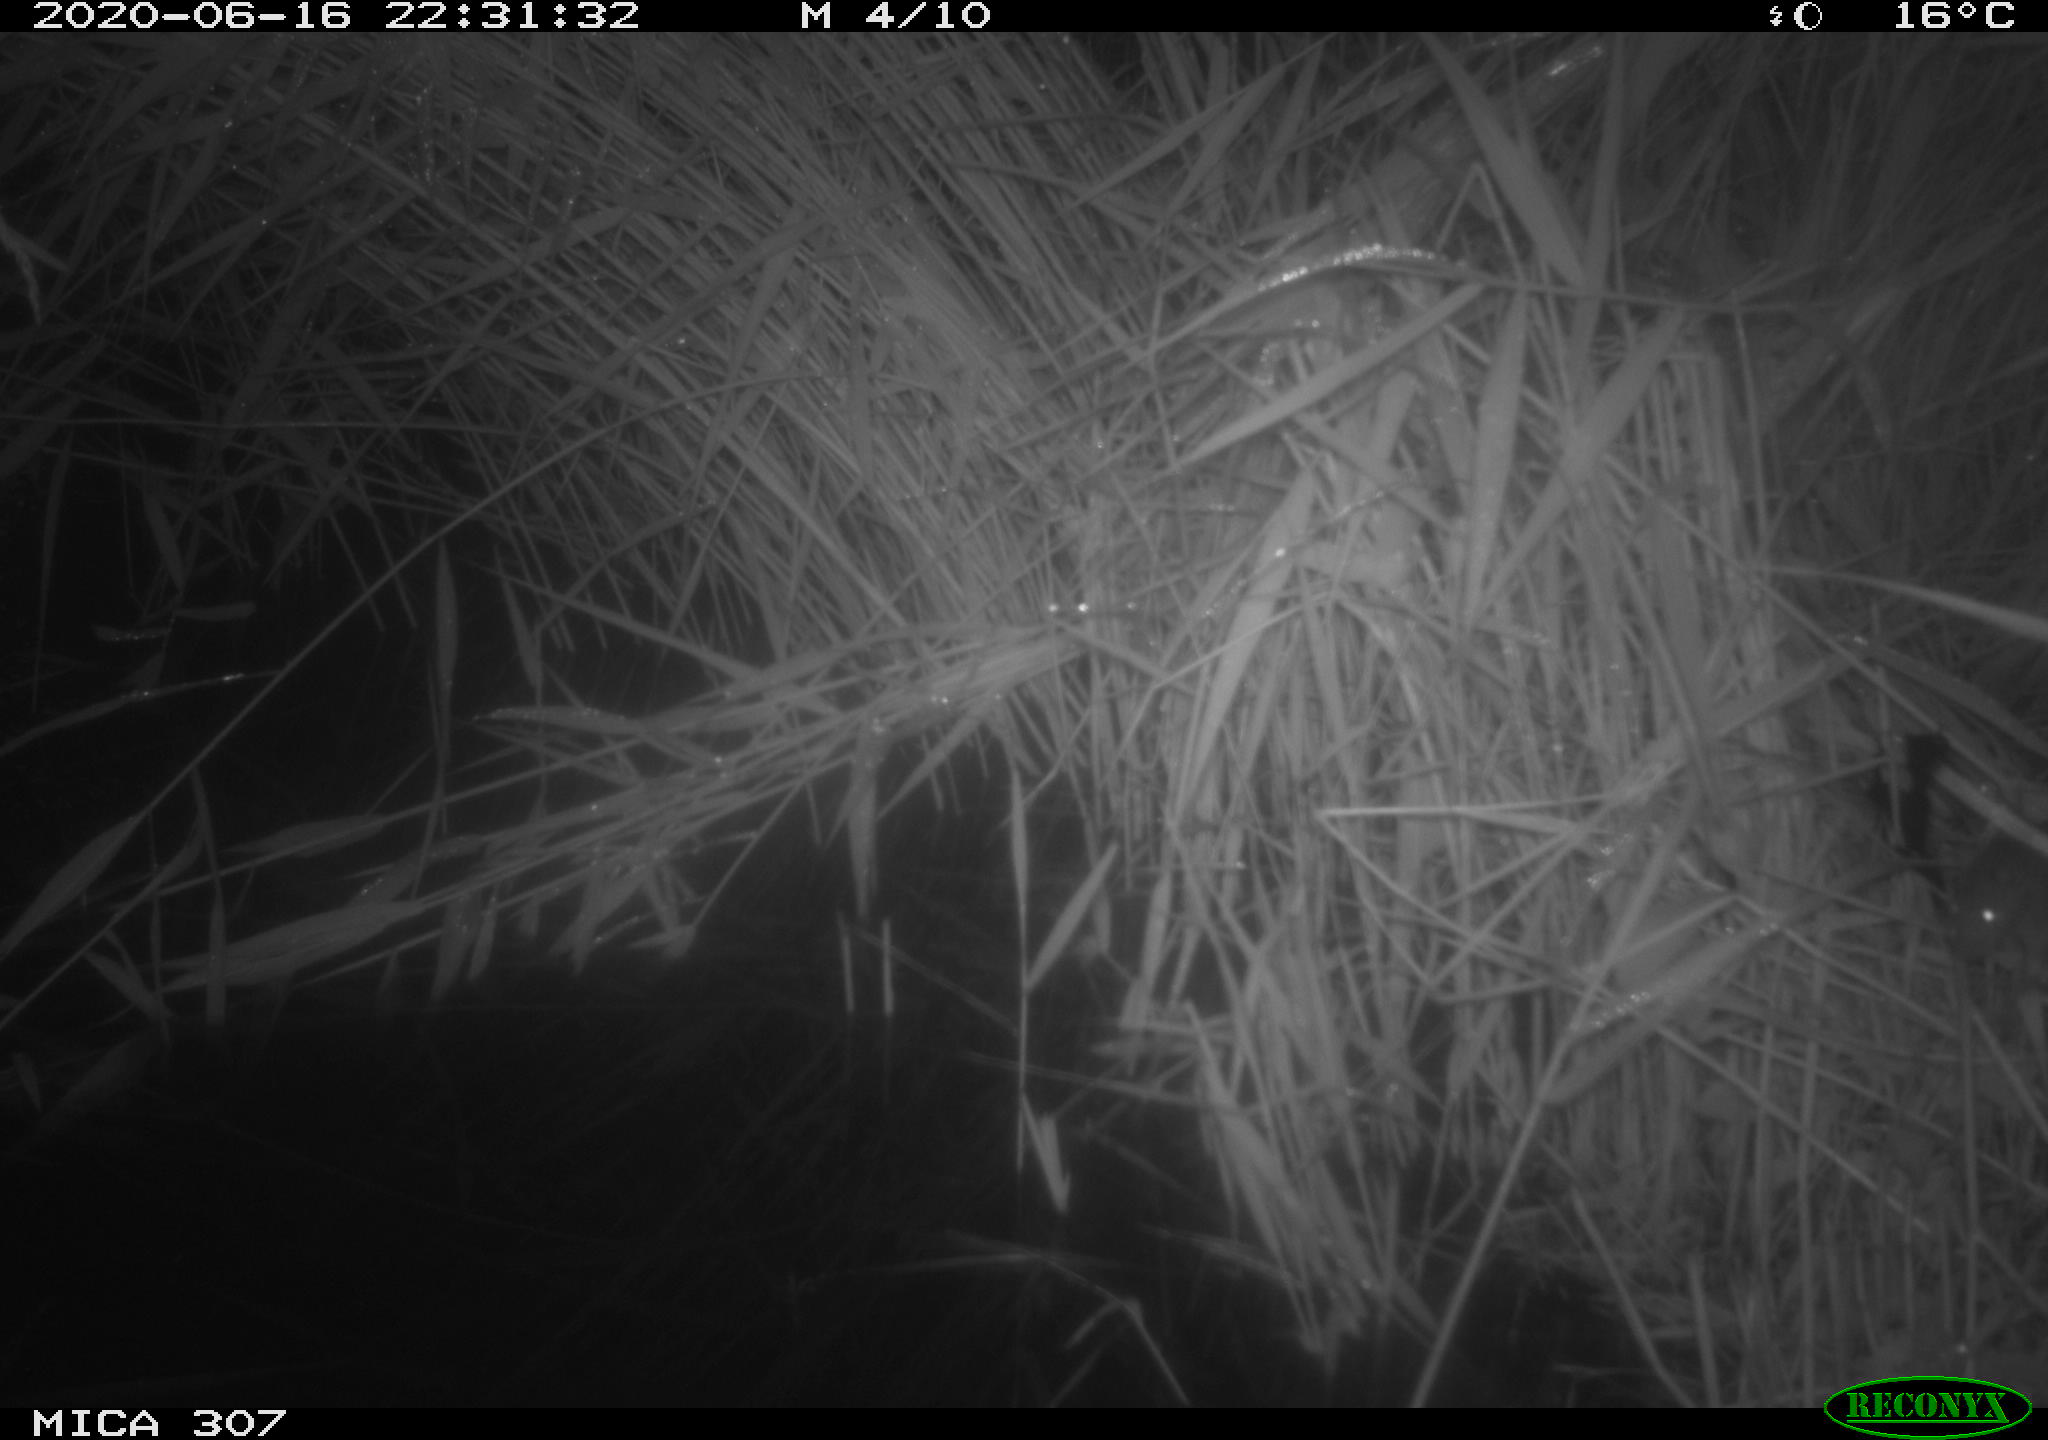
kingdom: Animalia
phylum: Chordata
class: Mammalia
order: Rodentia
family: Muridae
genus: Rattus
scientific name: Rattus norvegicus
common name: Brown rat
